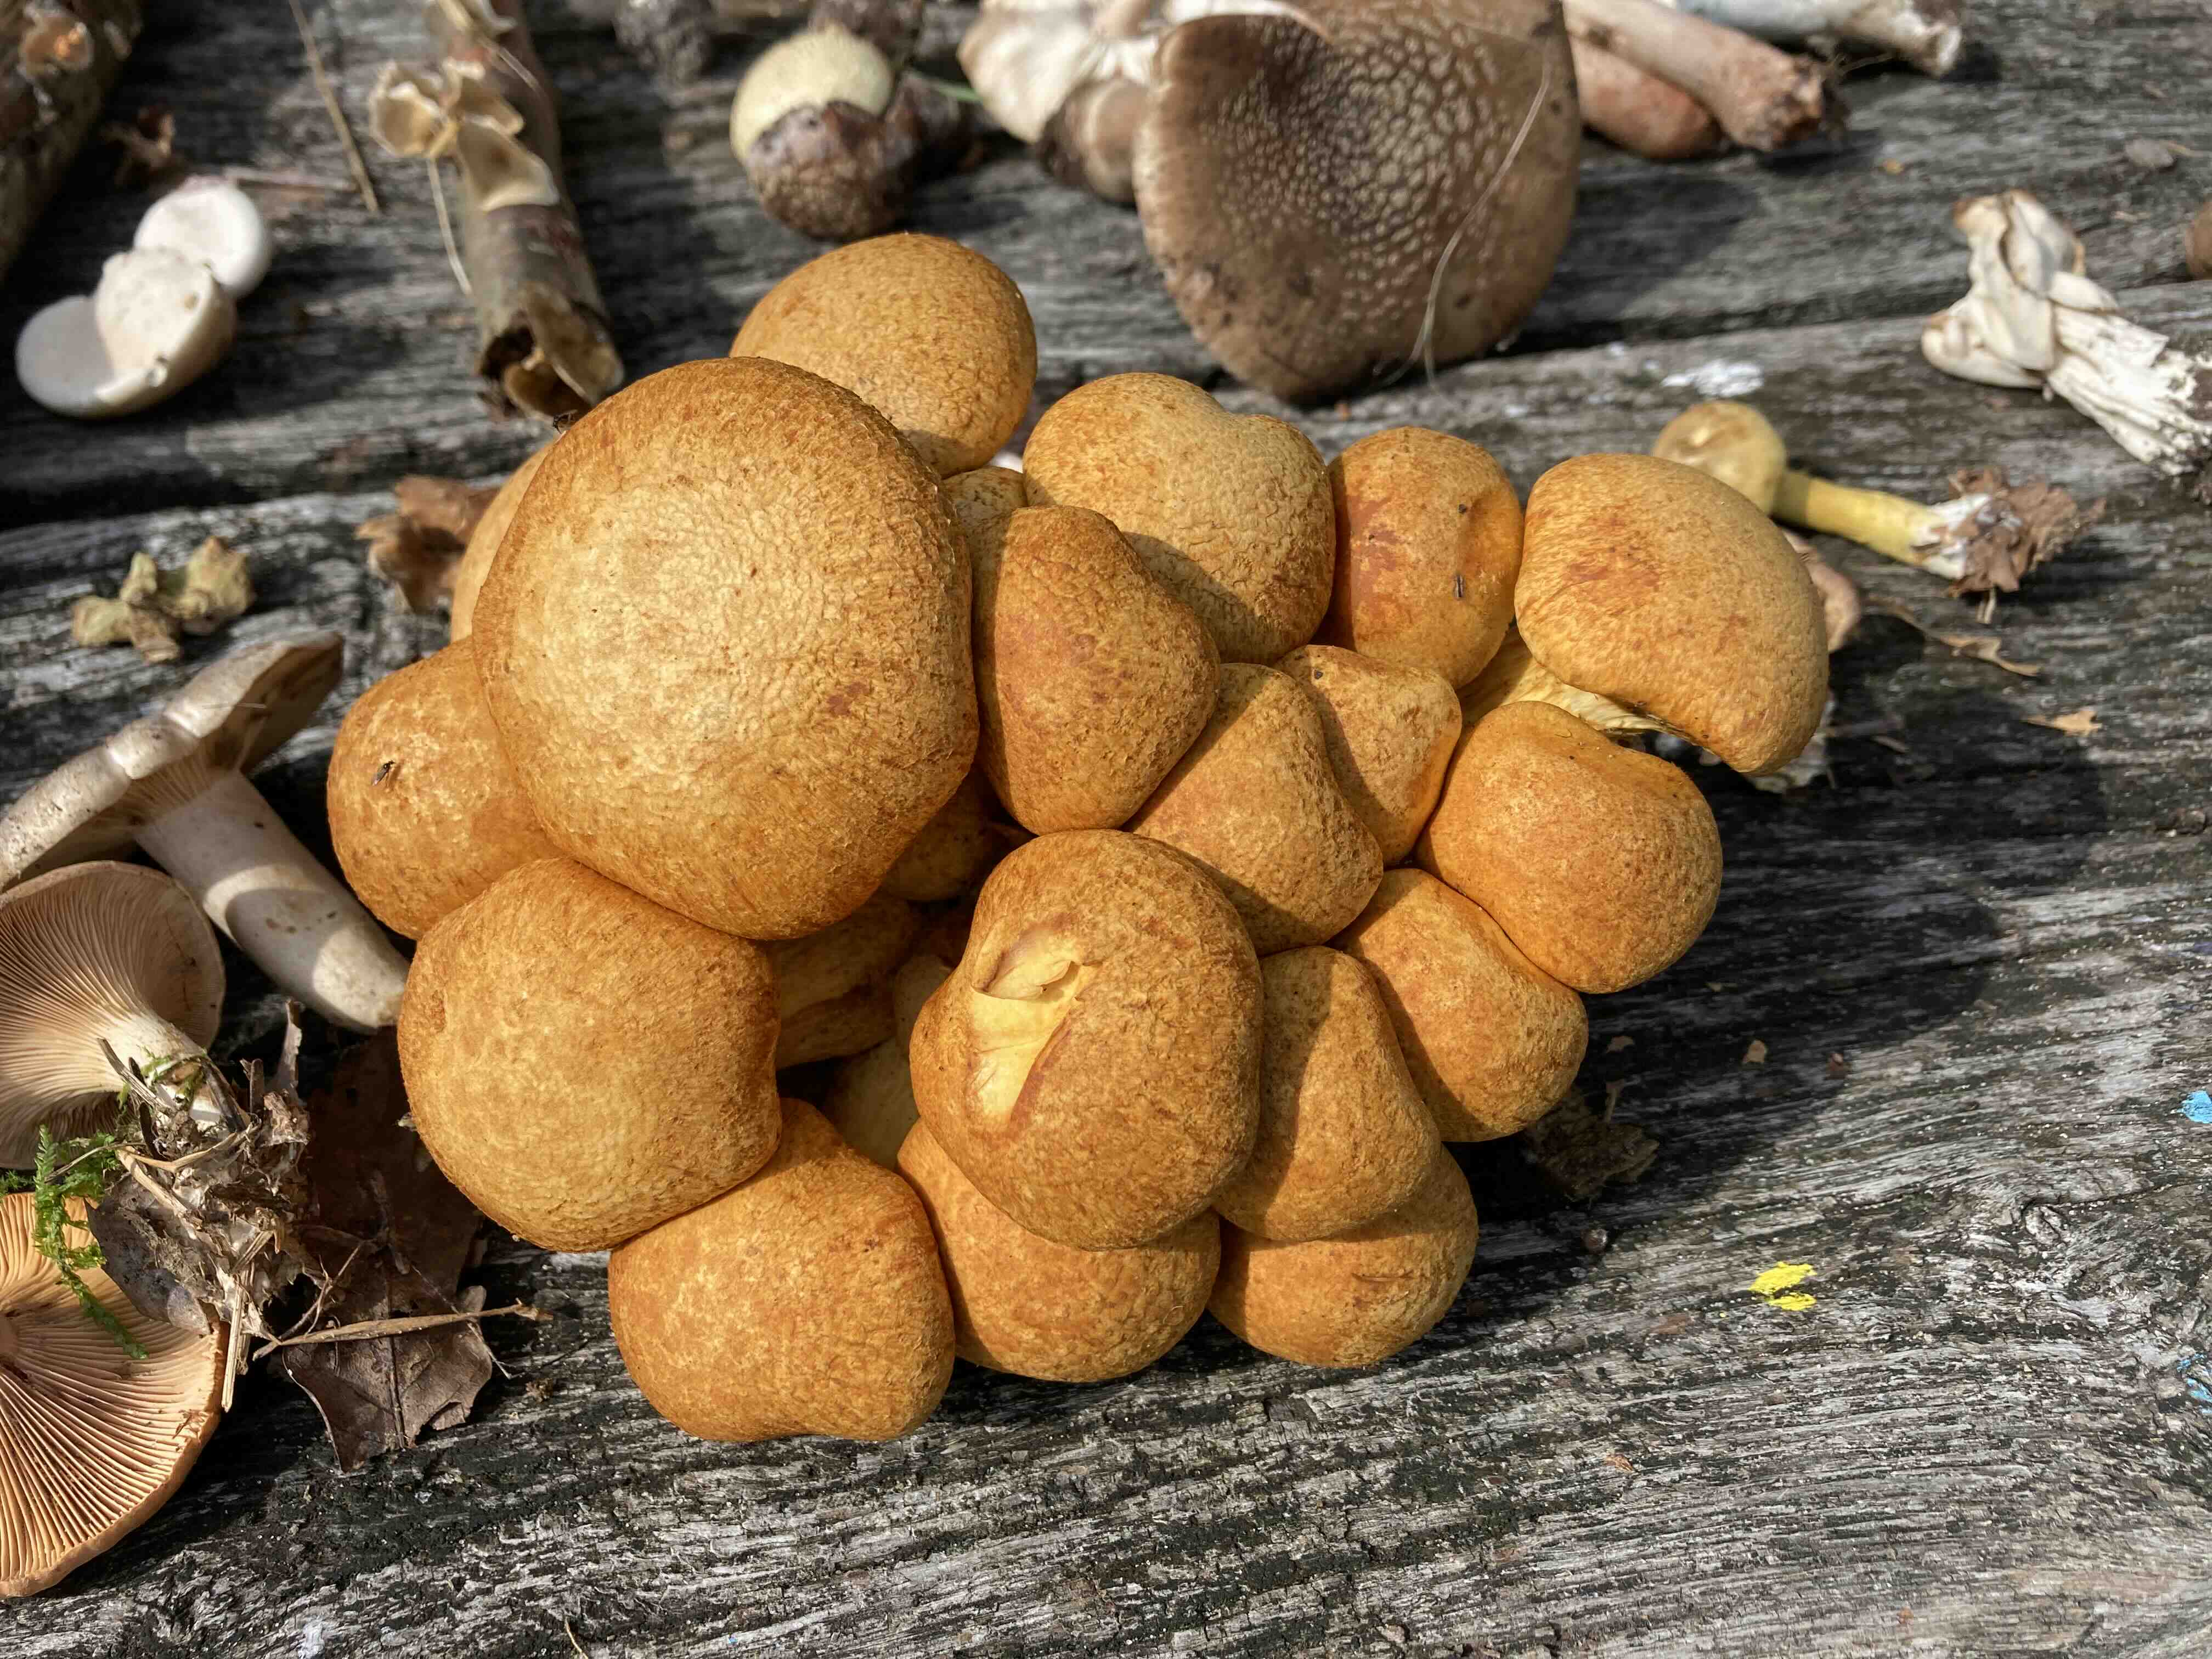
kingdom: Fungi
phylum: Basidiomycota
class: Agaricomycetes
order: Agaricales
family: Hymenogastraceae
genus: Gymnopilus
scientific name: Gymnopilus spectabilis
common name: fibret flammehat
